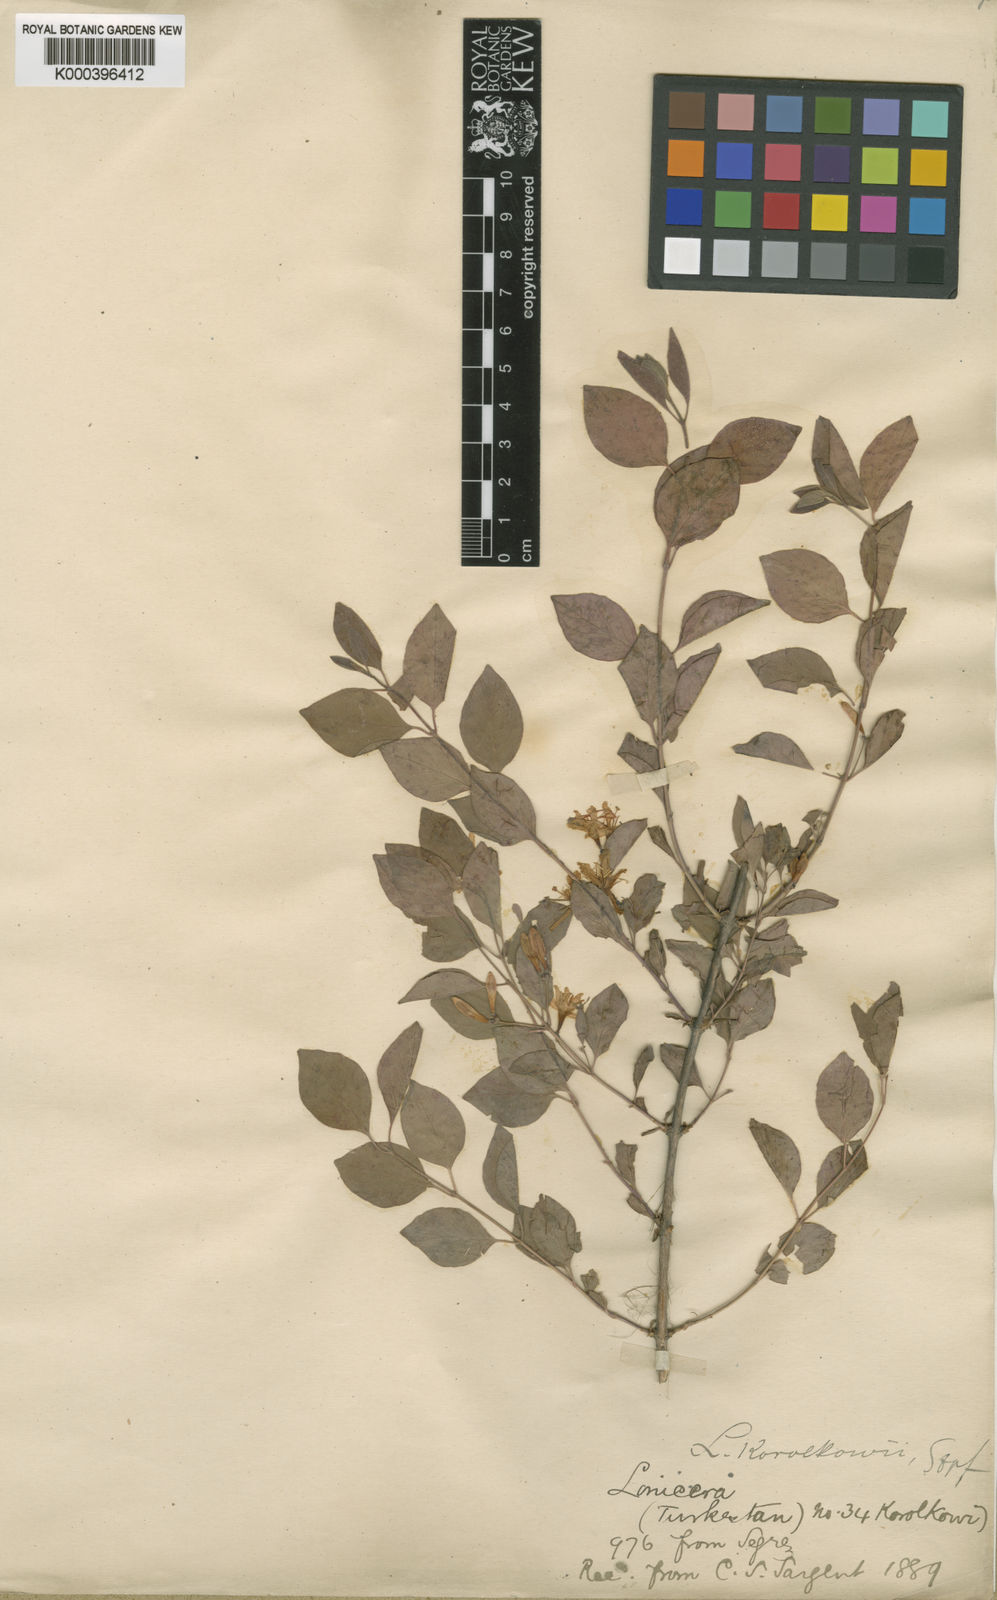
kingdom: Plantae
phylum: Tracheophyta
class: Magnoliopsida
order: Dipsacales
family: Caprifoliaceae
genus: Lonicera
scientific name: Lonicera korolkowii
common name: Blueleaf honeysuckle
